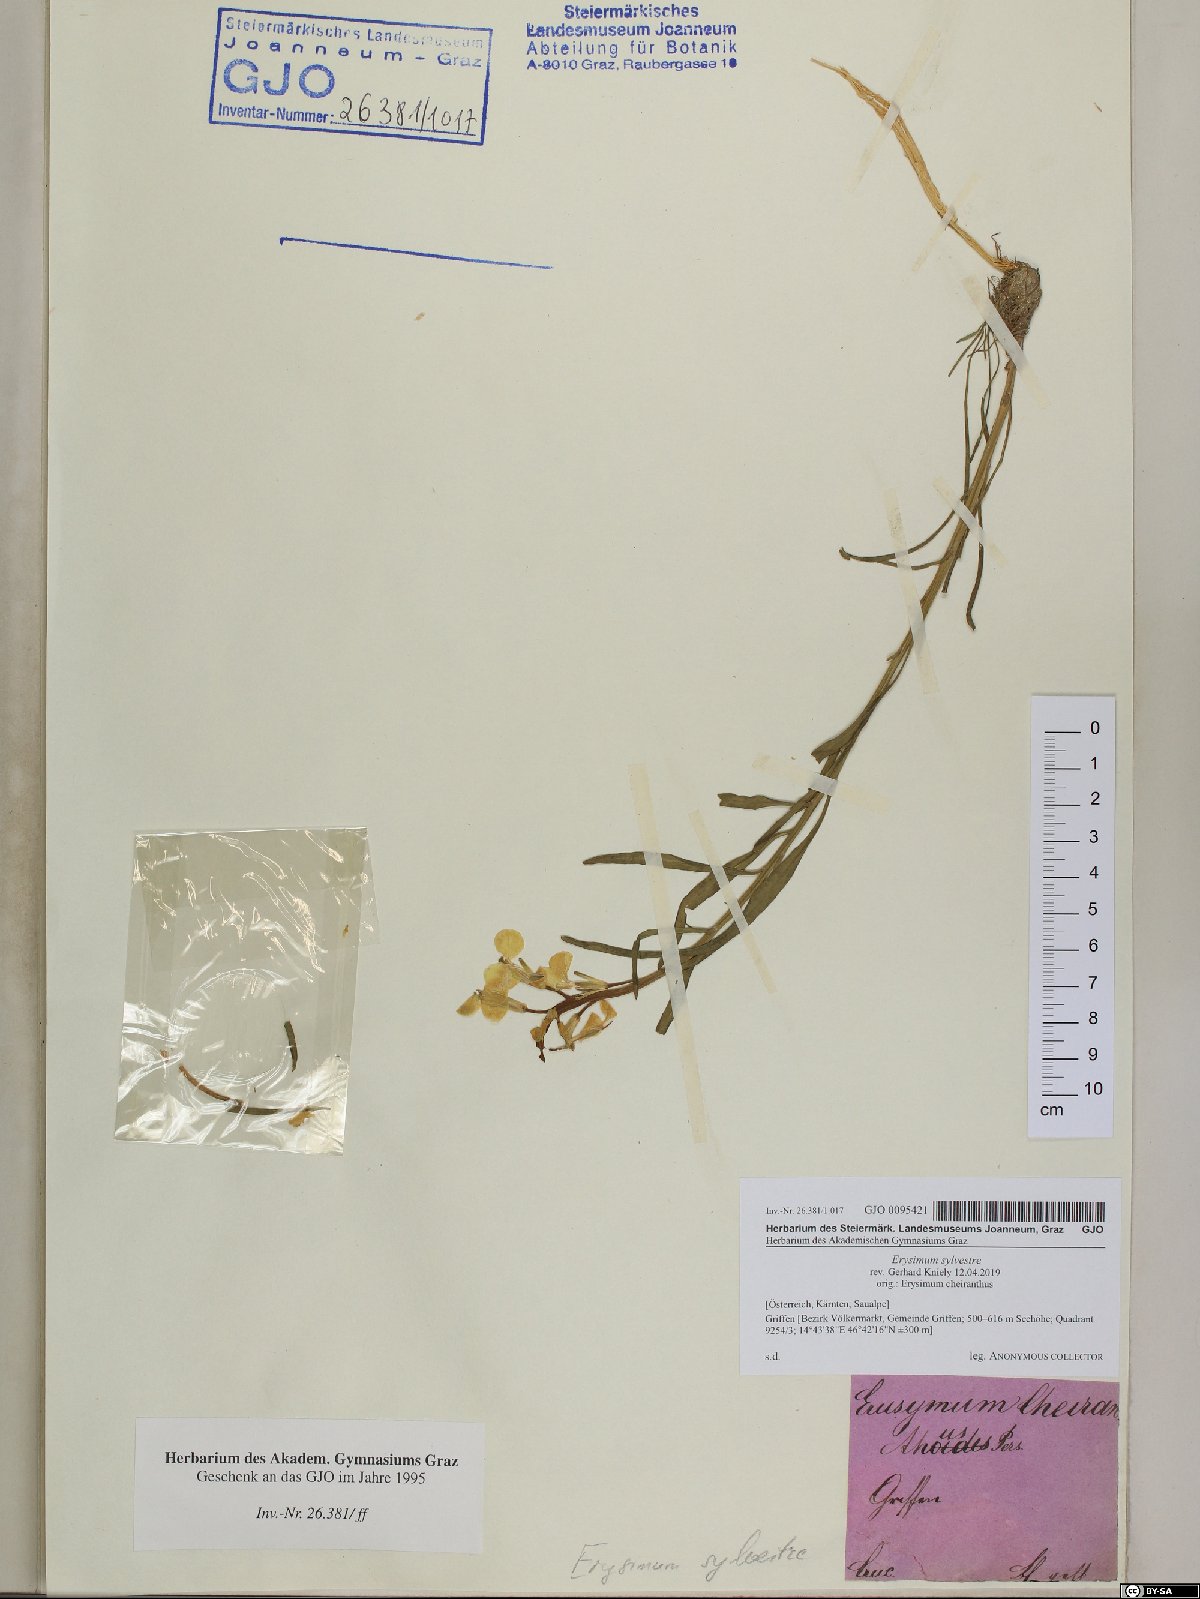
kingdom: Plantae
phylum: Tracheophyta
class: Magnoliopsida
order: Brassicales
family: Brassicaceae
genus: Erysimum
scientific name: Erysimum sylvestre
